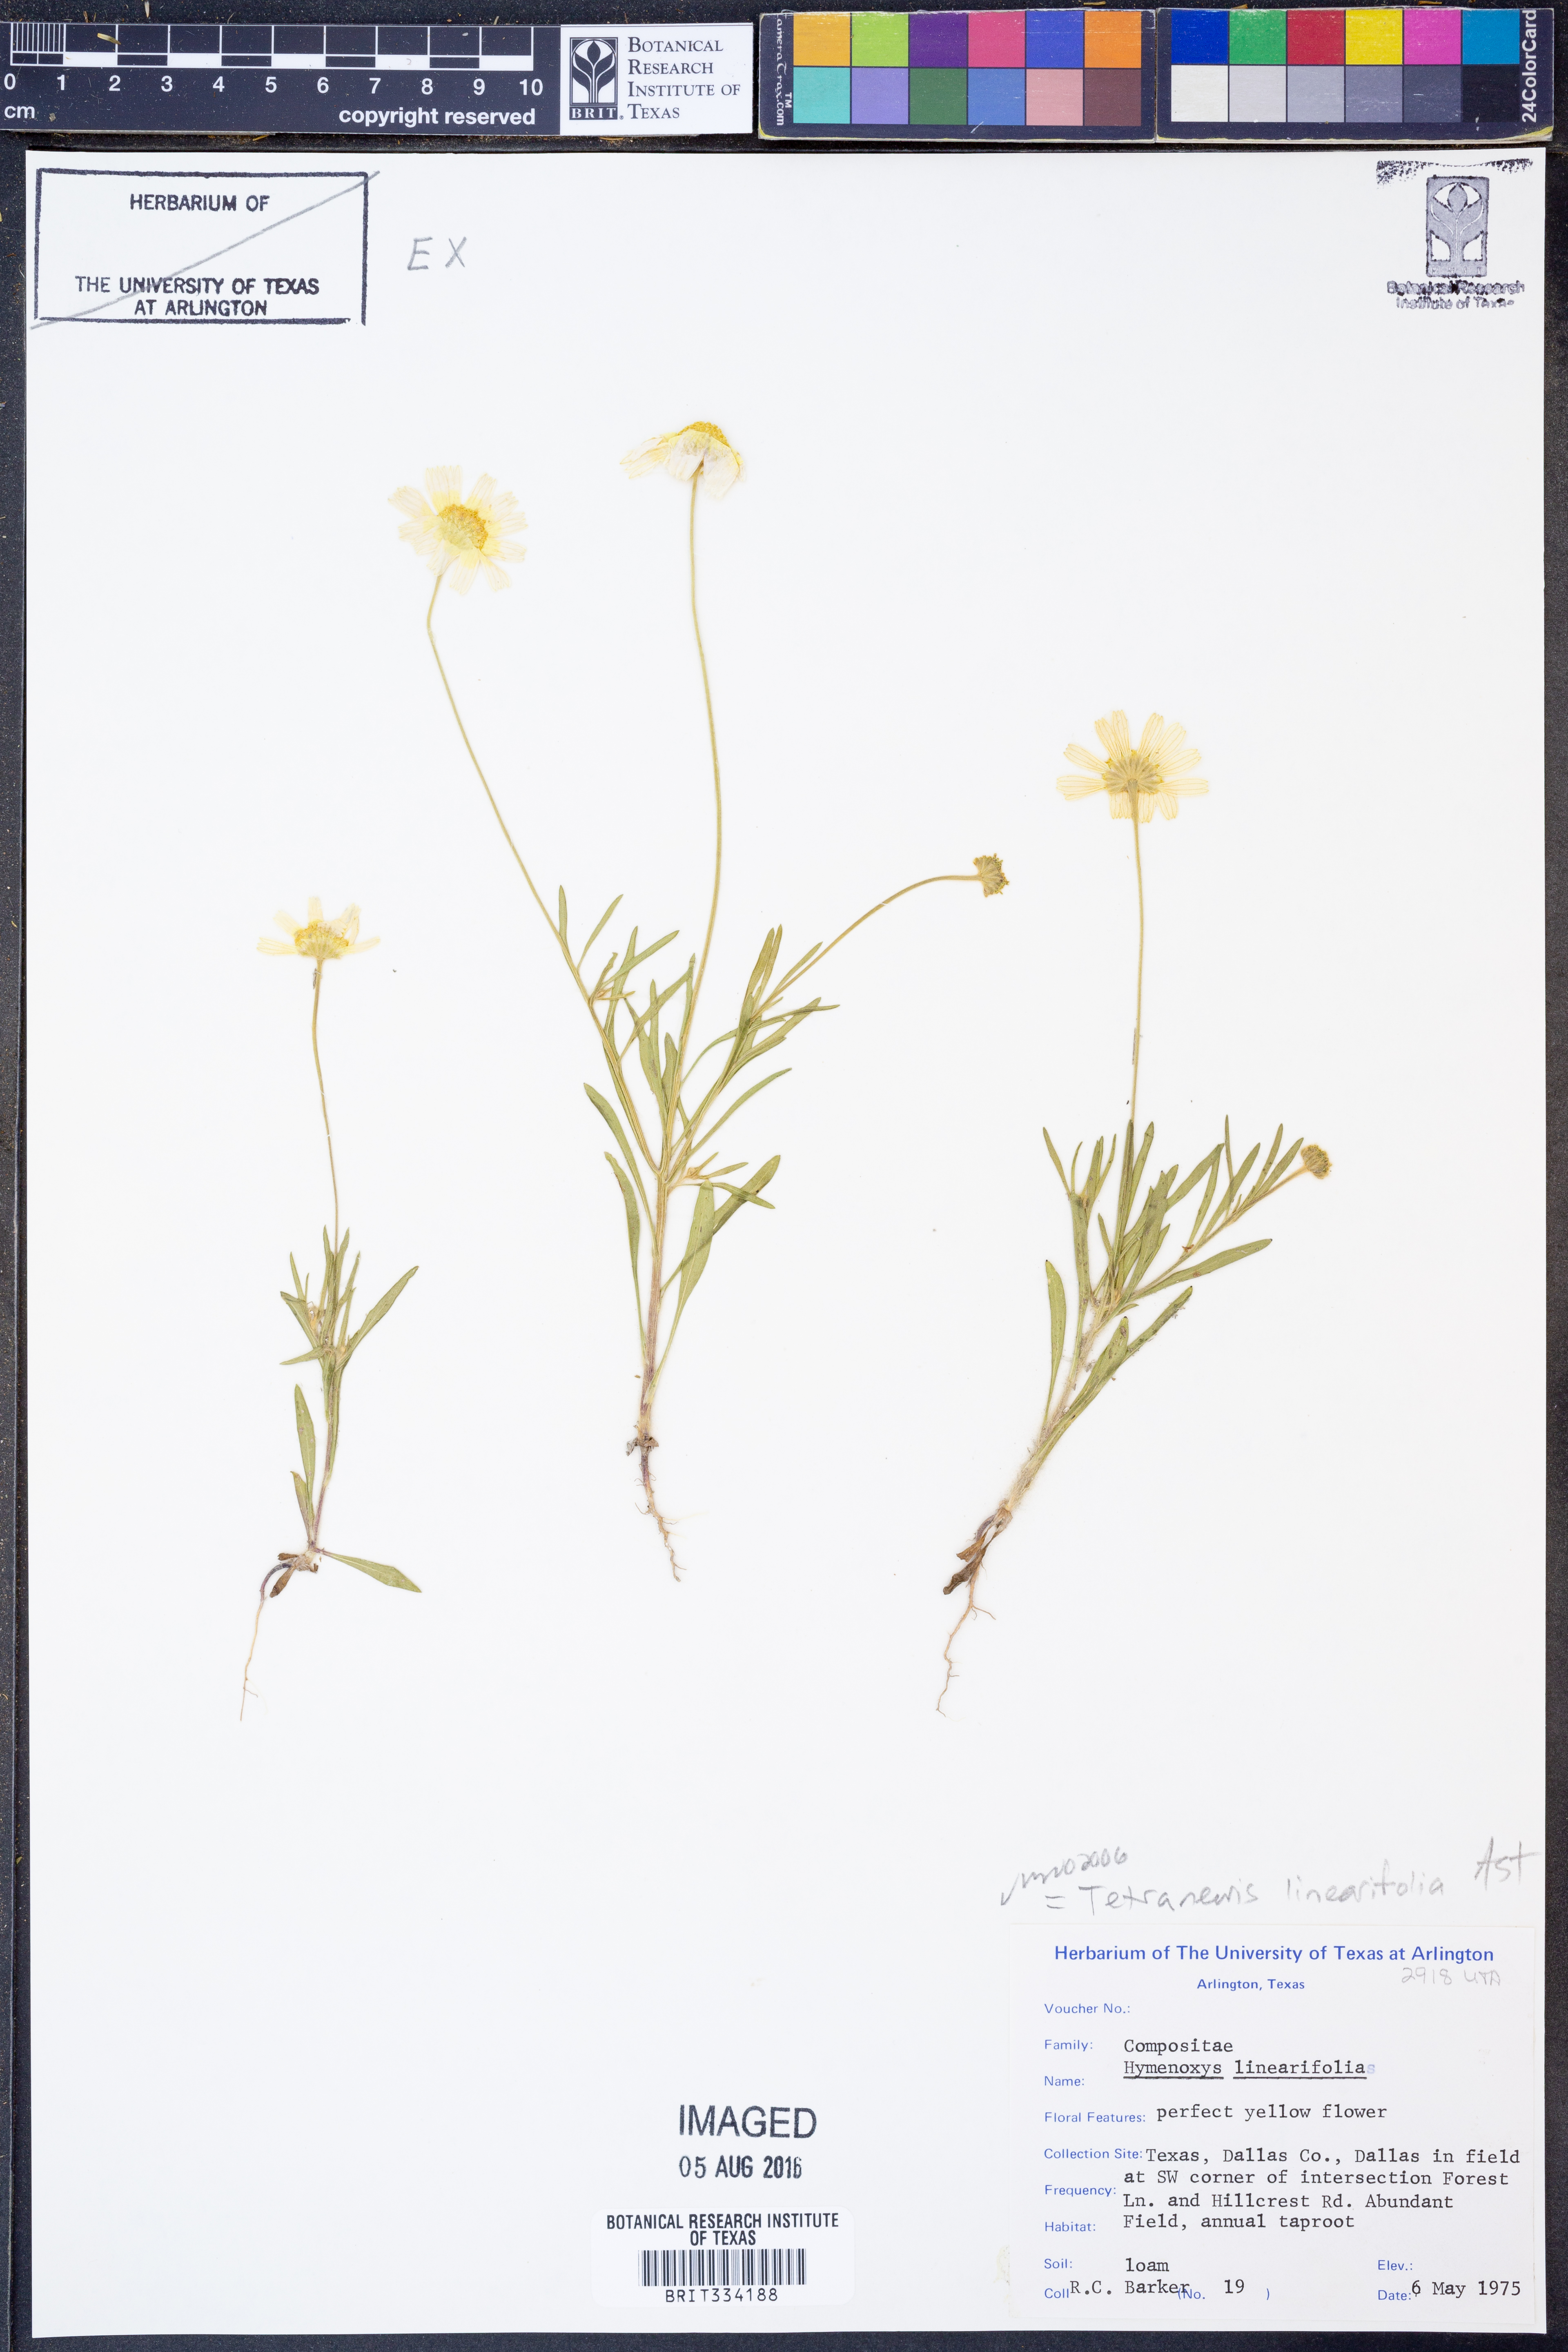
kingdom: Plantae
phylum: Tracheophyta
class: Magnoliopsida
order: Asterales
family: Asteraceae
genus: Tetraneuris
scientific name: Tetraneuris linearifolia
